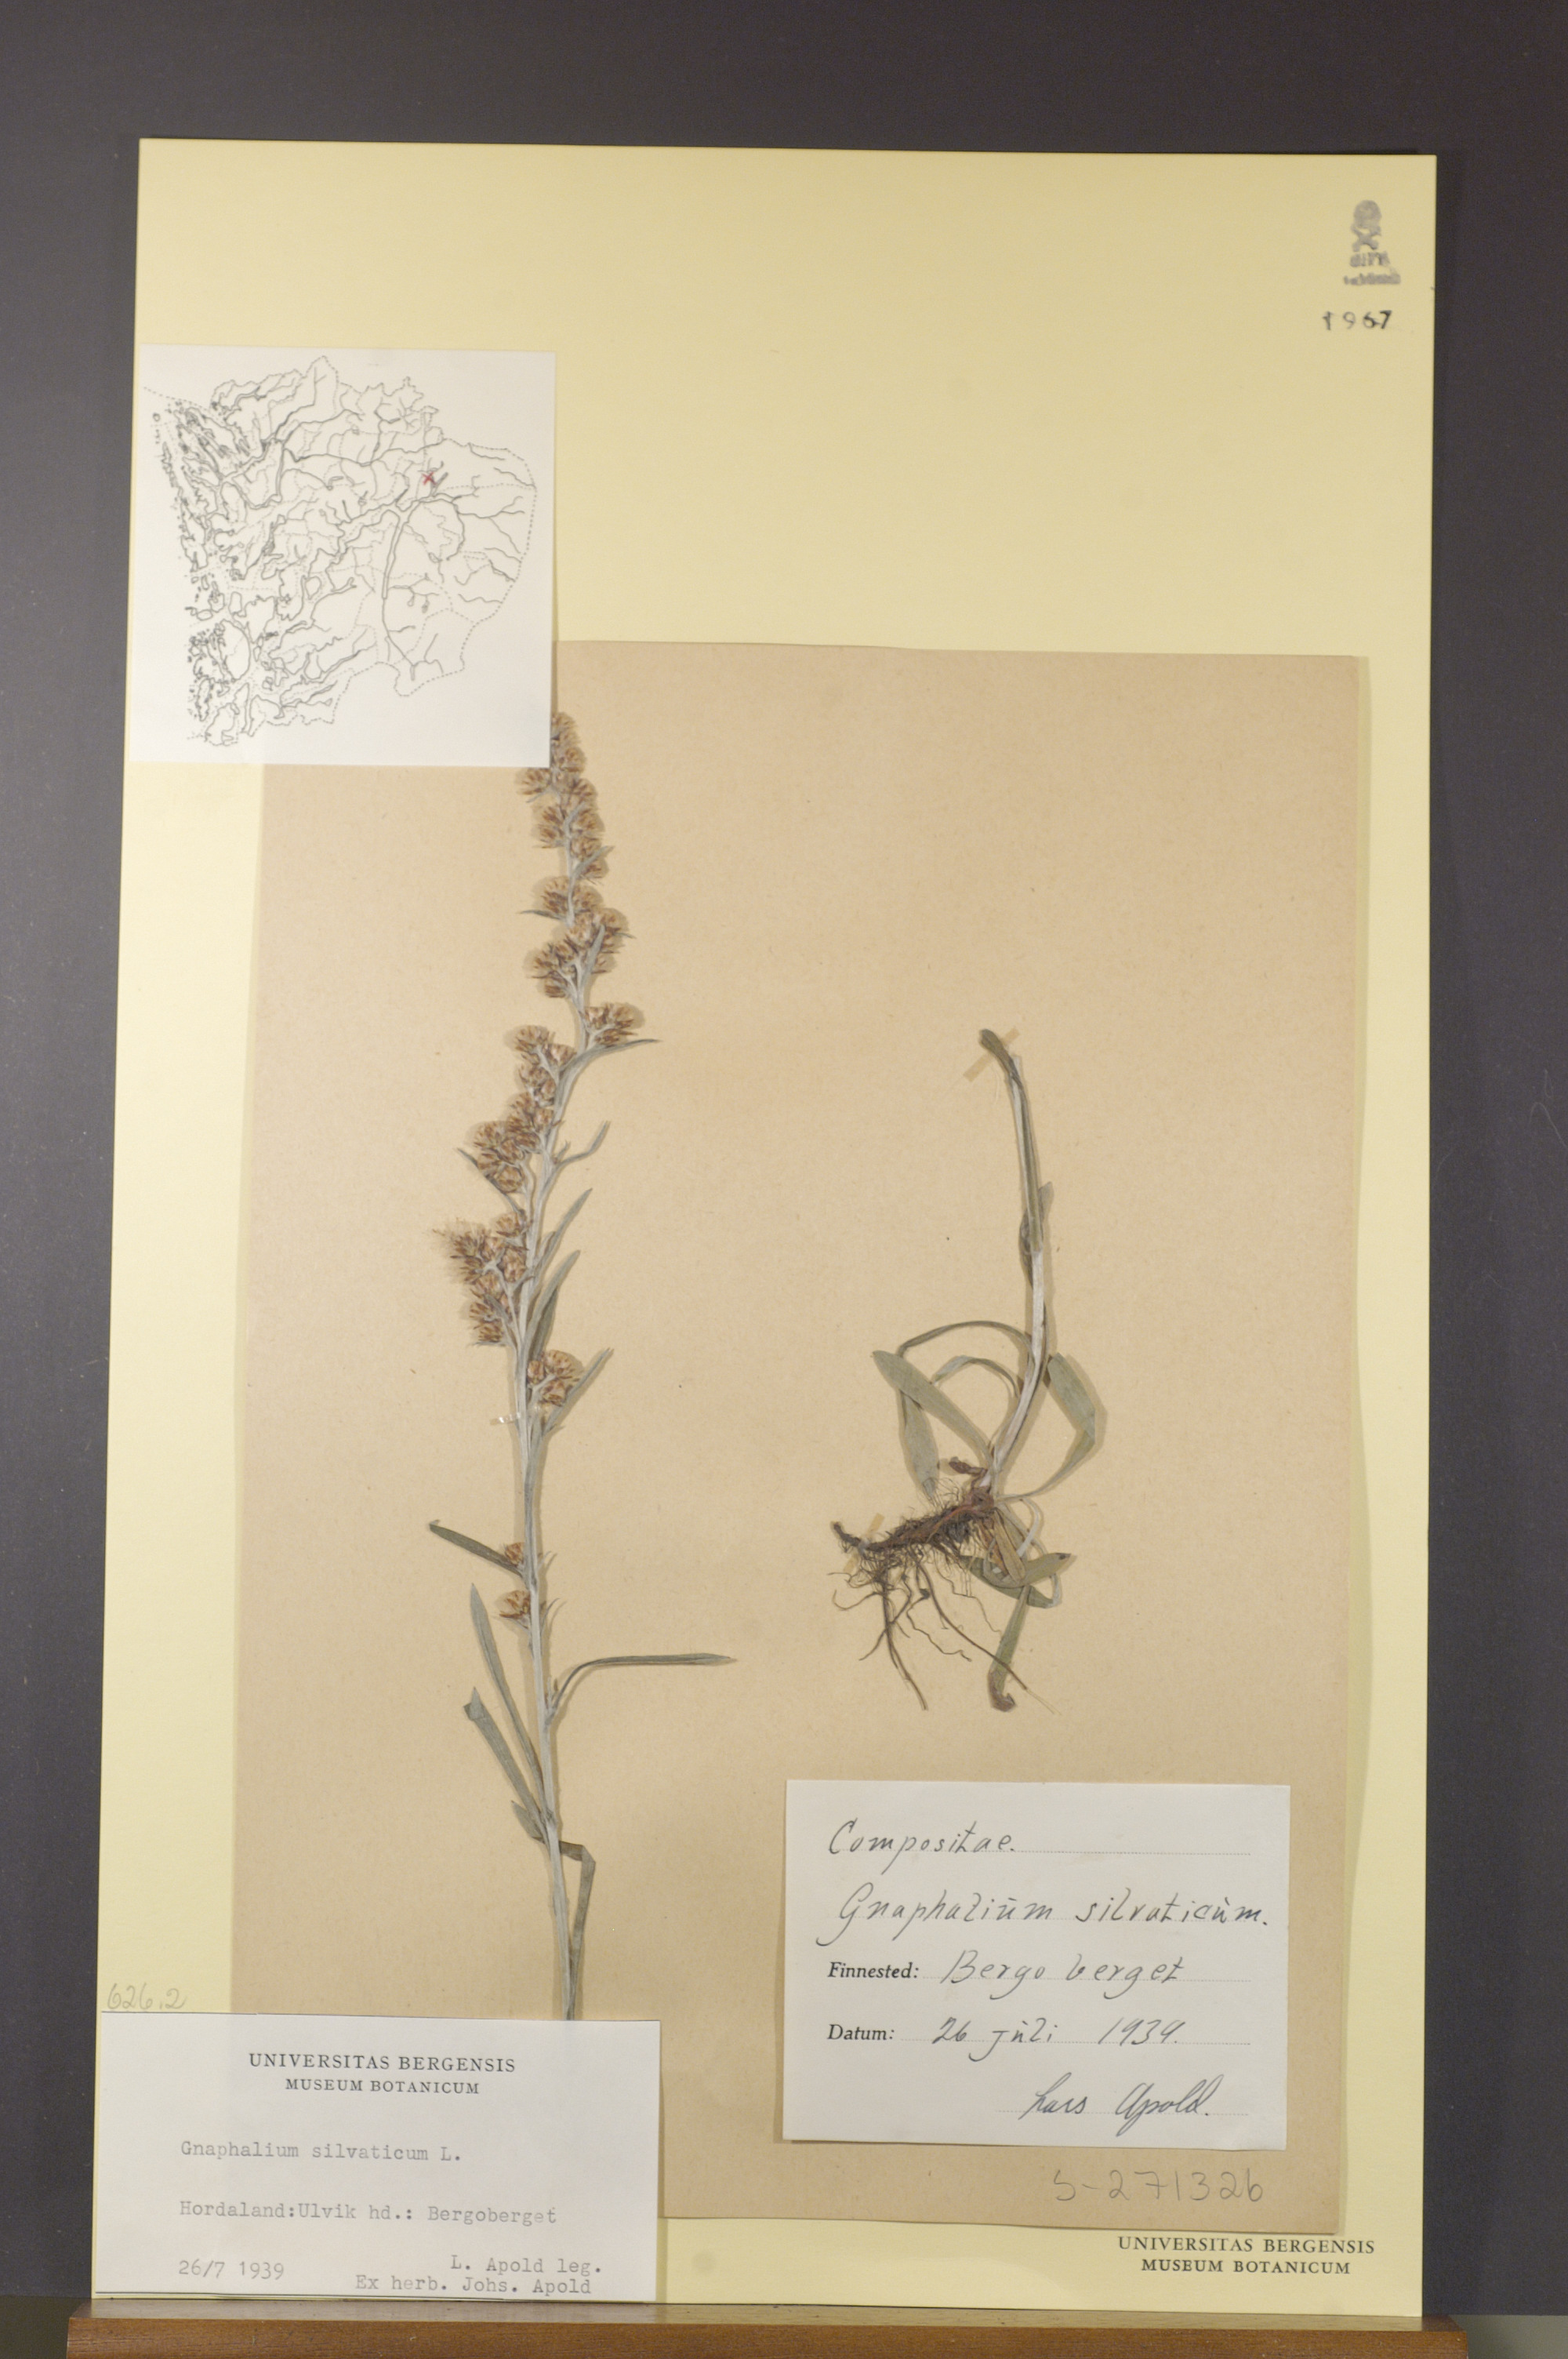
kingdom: Plantae
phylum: Tracheophyta
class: Magnoliopsida
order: Asterales
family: Asteraceae
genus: Omalotheca
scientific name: Omalotheca sylvatica
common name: Heath cudweed
